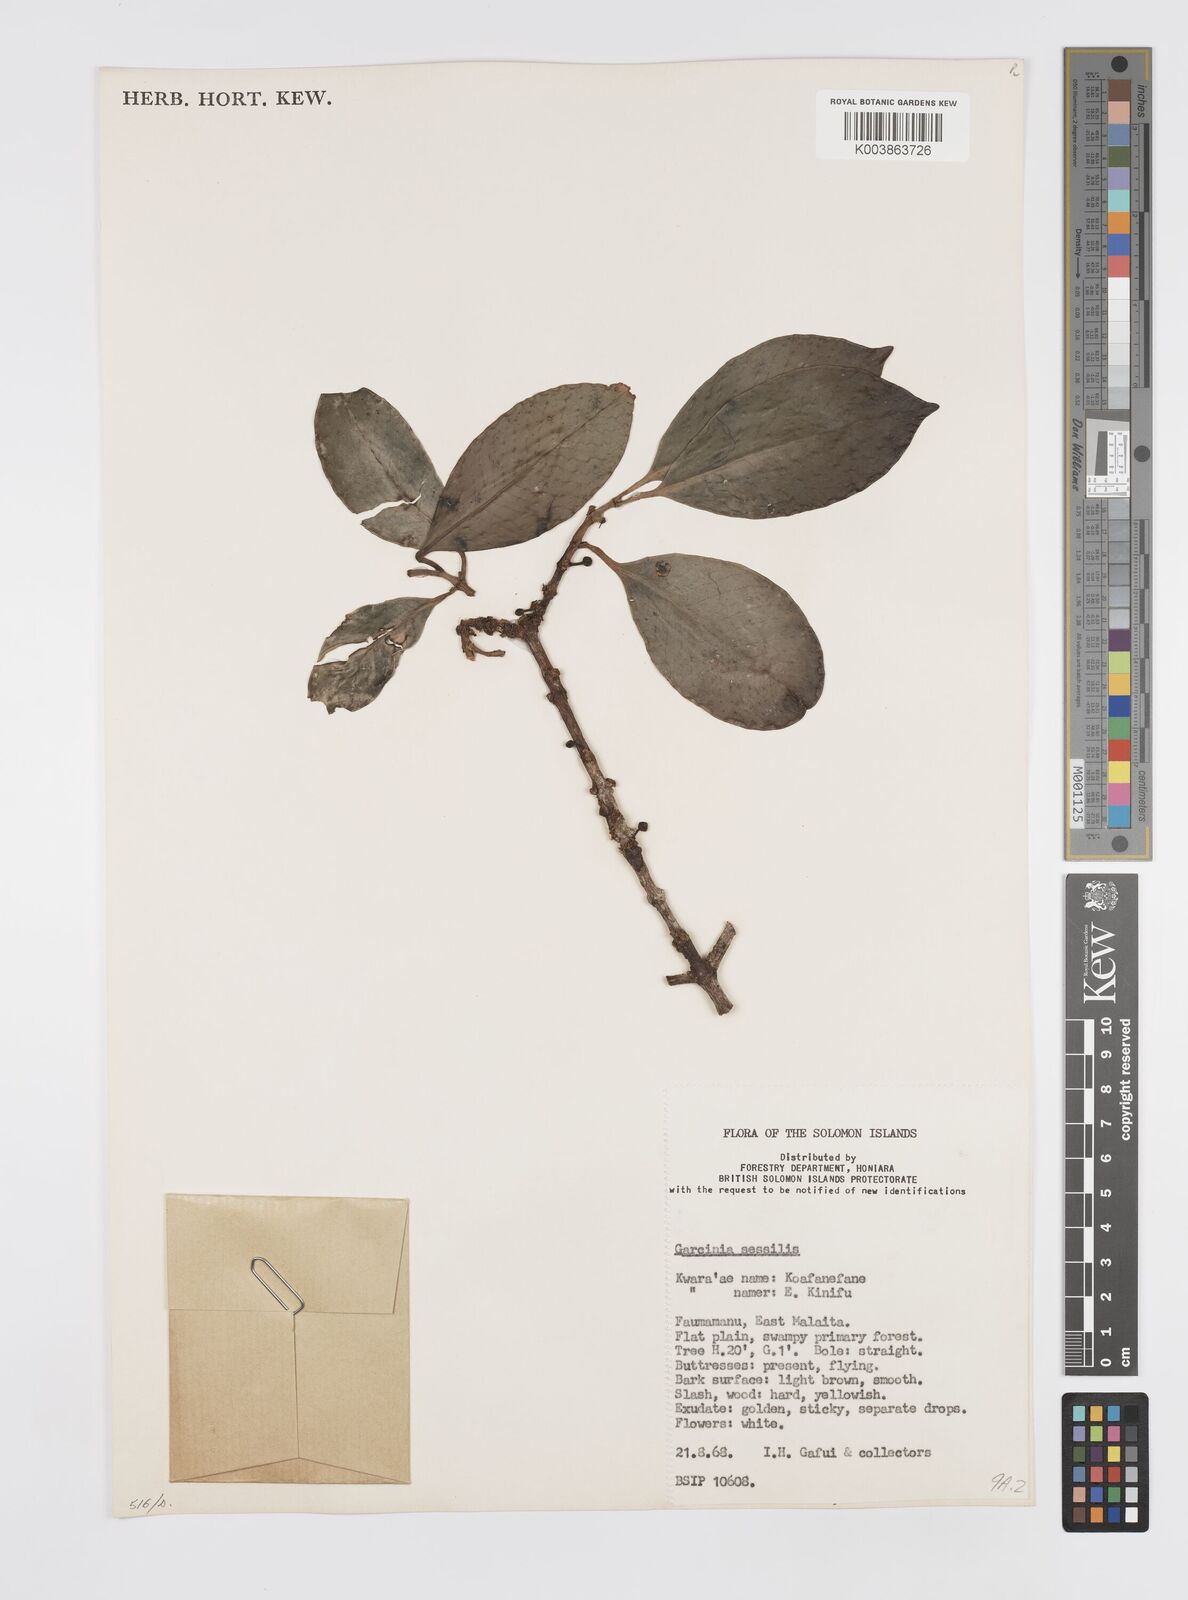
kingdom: Plantae
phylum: Tracheophyta
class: Magnoliopsida
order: Malpighiales
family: Clusiaceae
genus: Garcinia
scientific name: Garcinia sessilis
